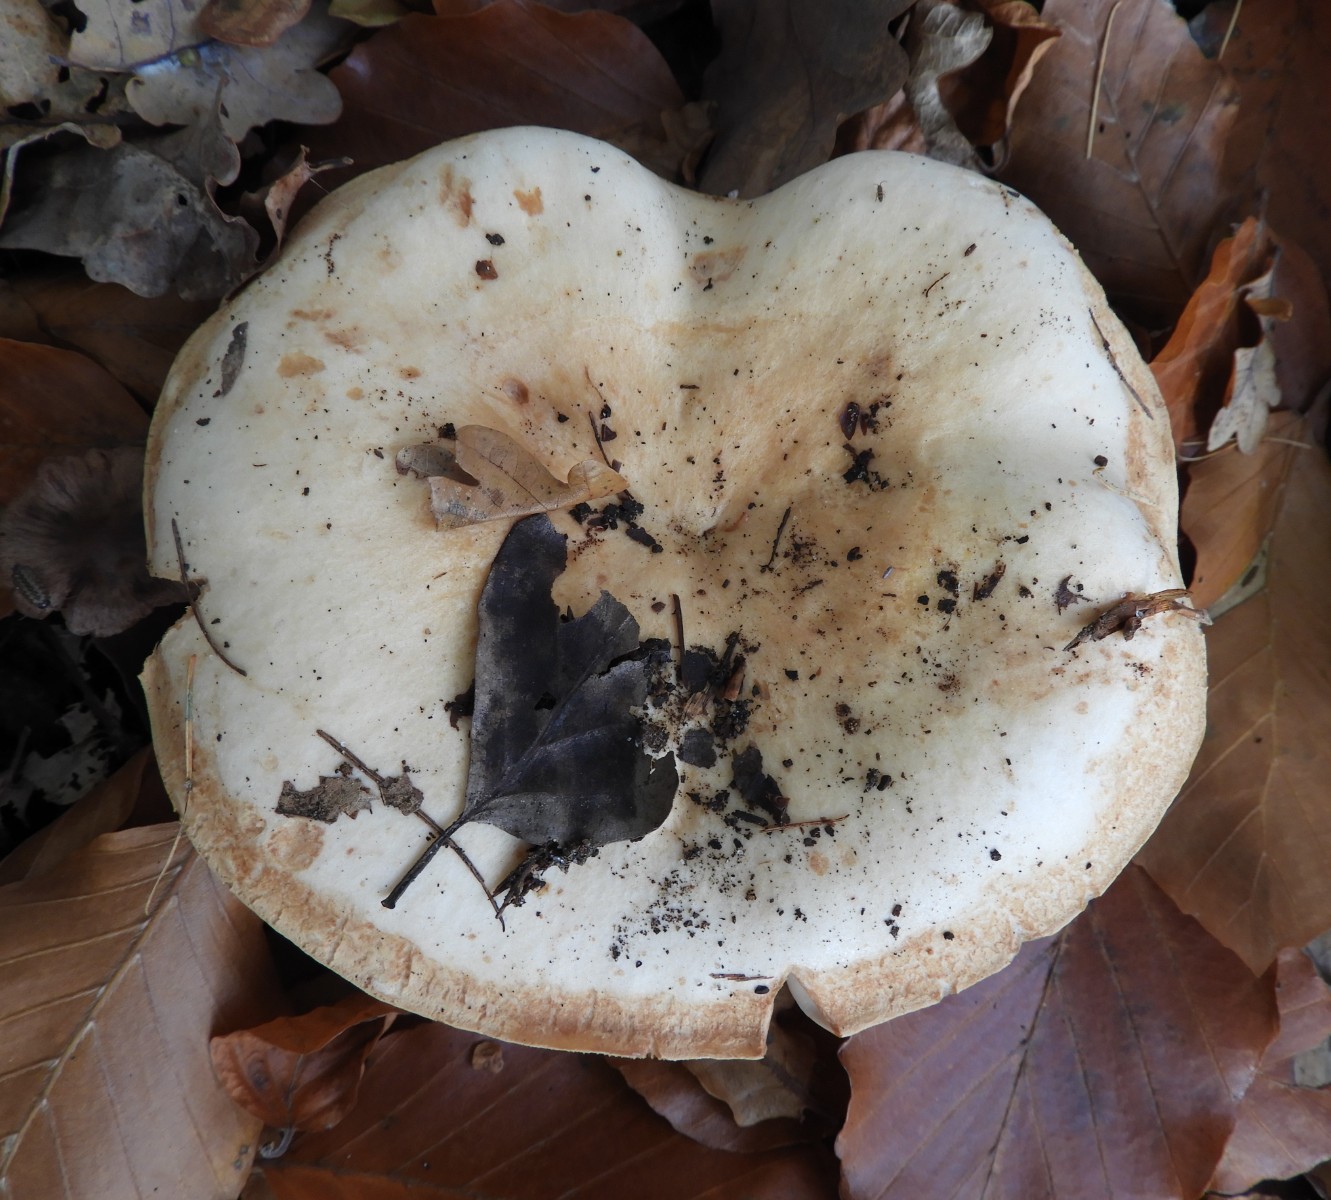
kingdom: Fungi
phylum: Basidiomycota
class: Agaricomycetes
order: Russulales
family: Russulaceae
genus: Lactarius
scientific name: Lactarius
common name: mælkehat
